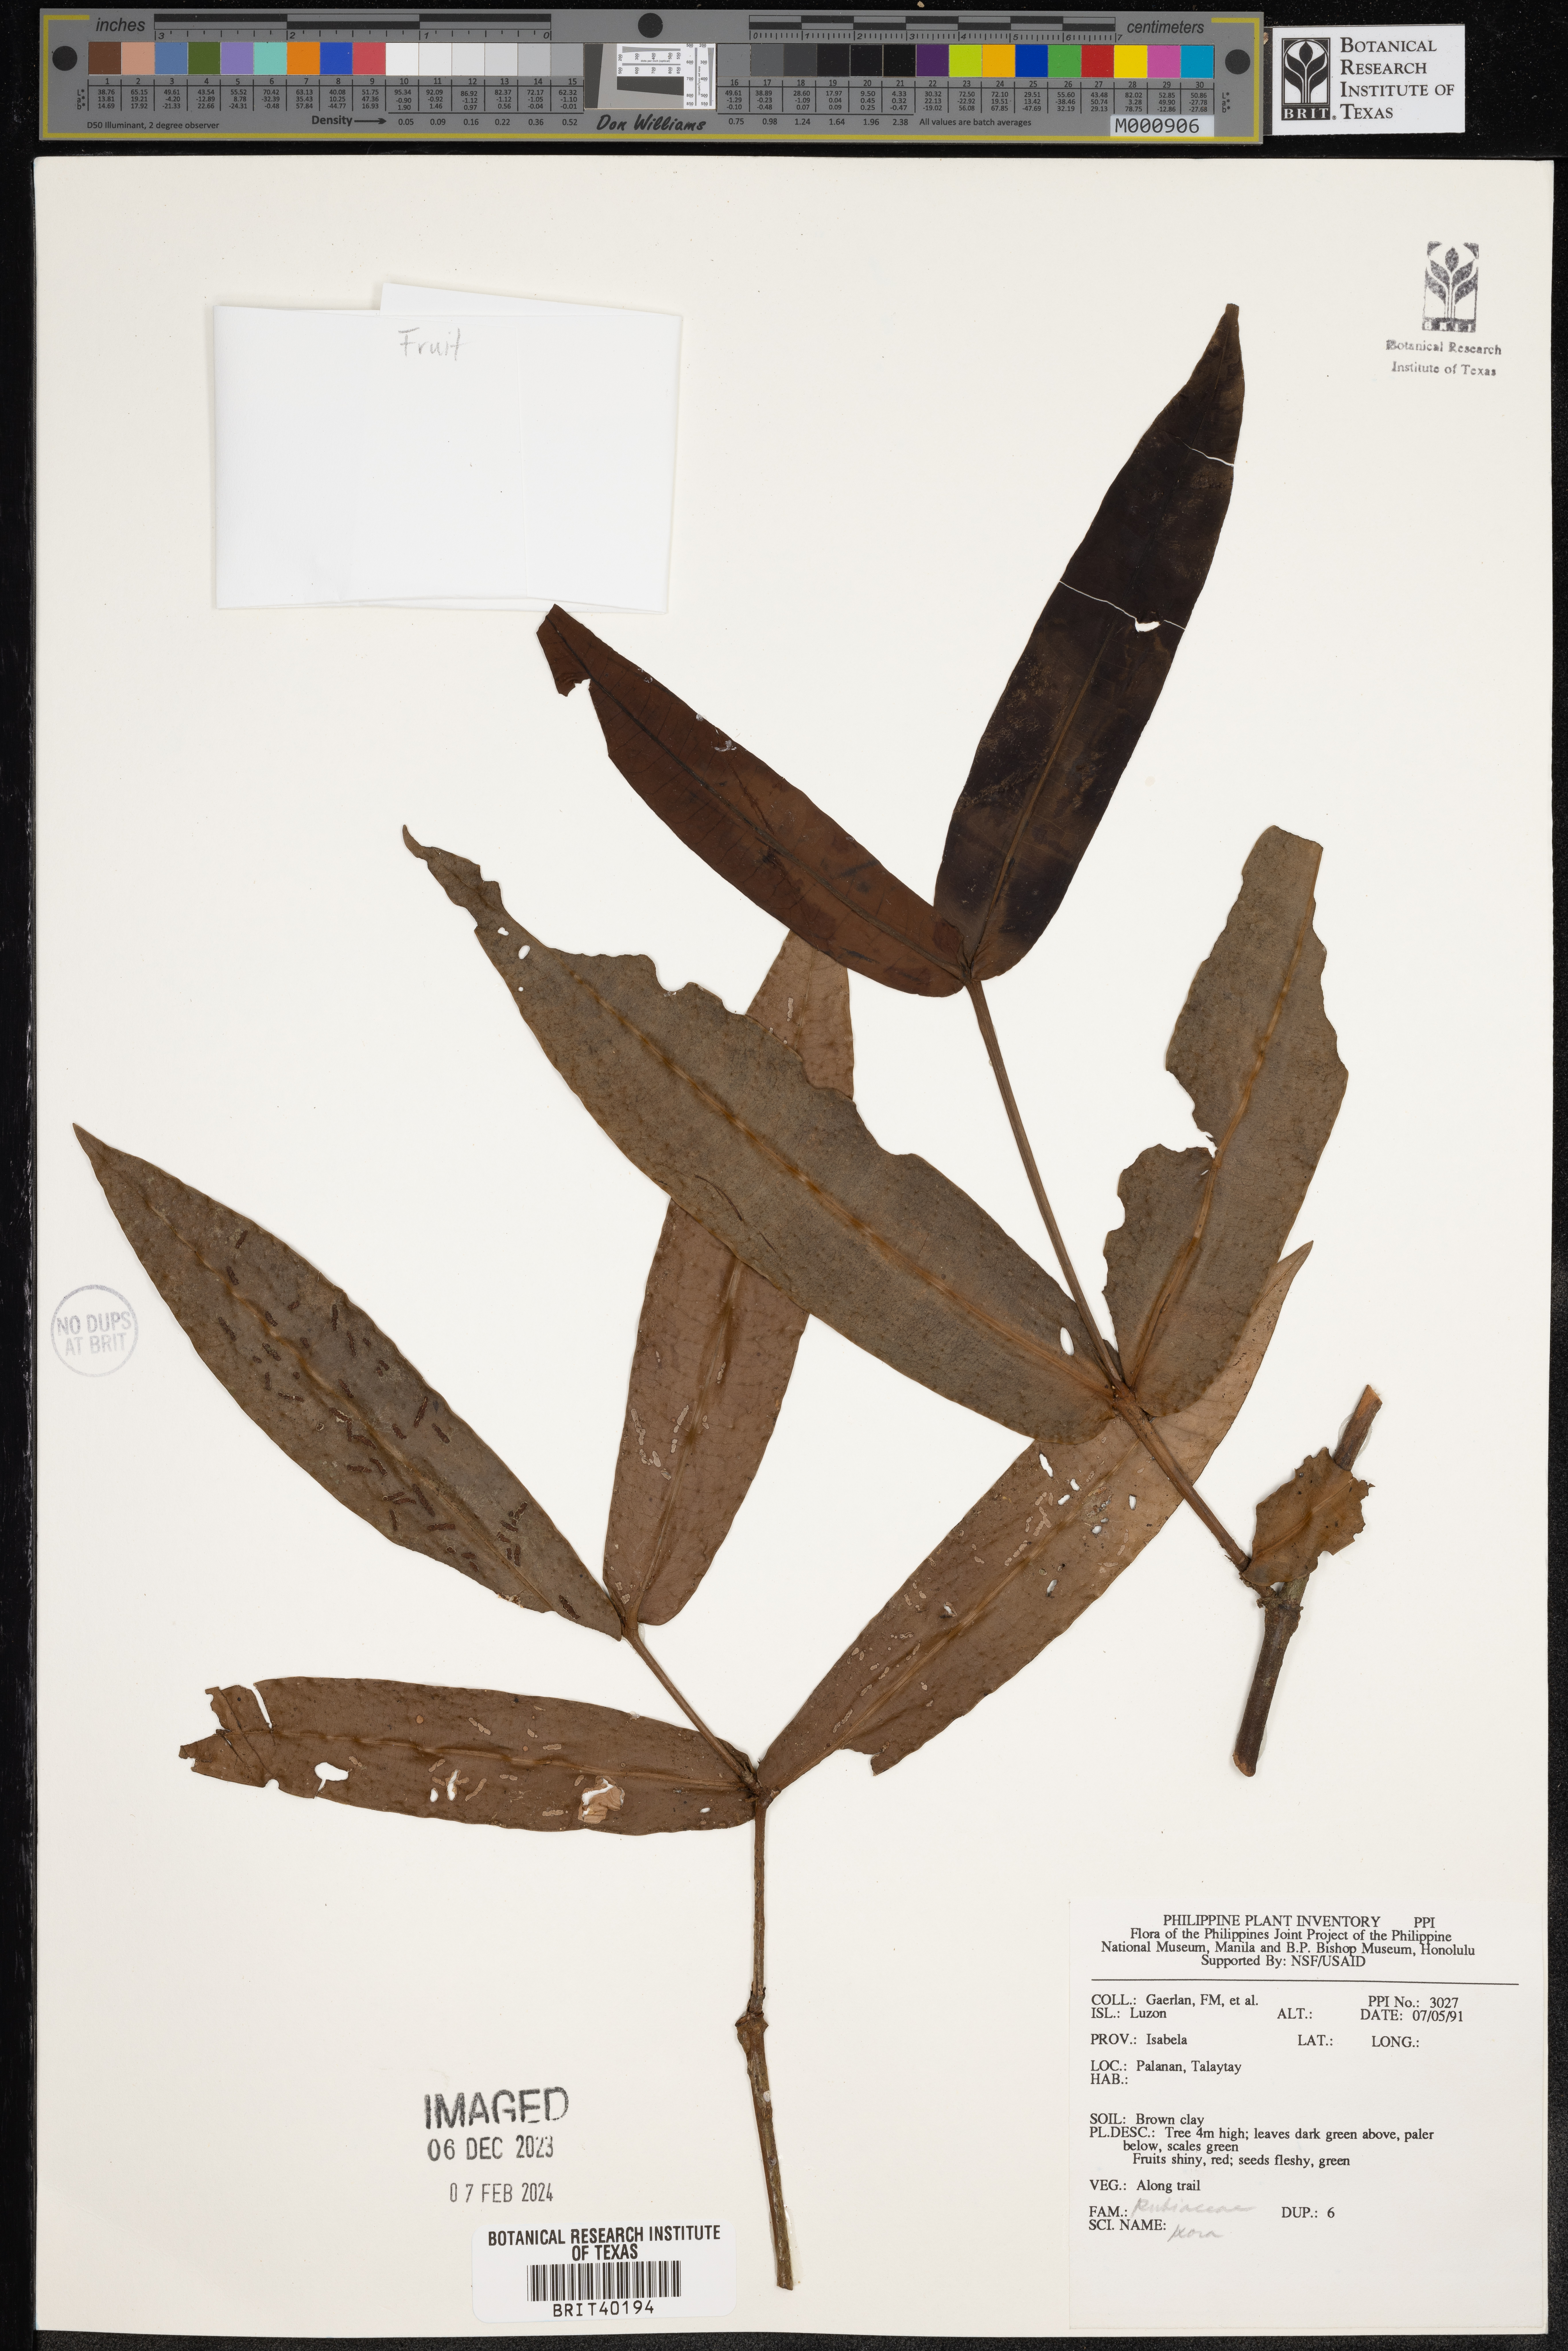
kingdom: Plantae
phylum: Tracheophyta
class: Magnoliopsida
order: Gentianales
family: Rubiaceae
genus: Ixora
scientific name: Ixora
